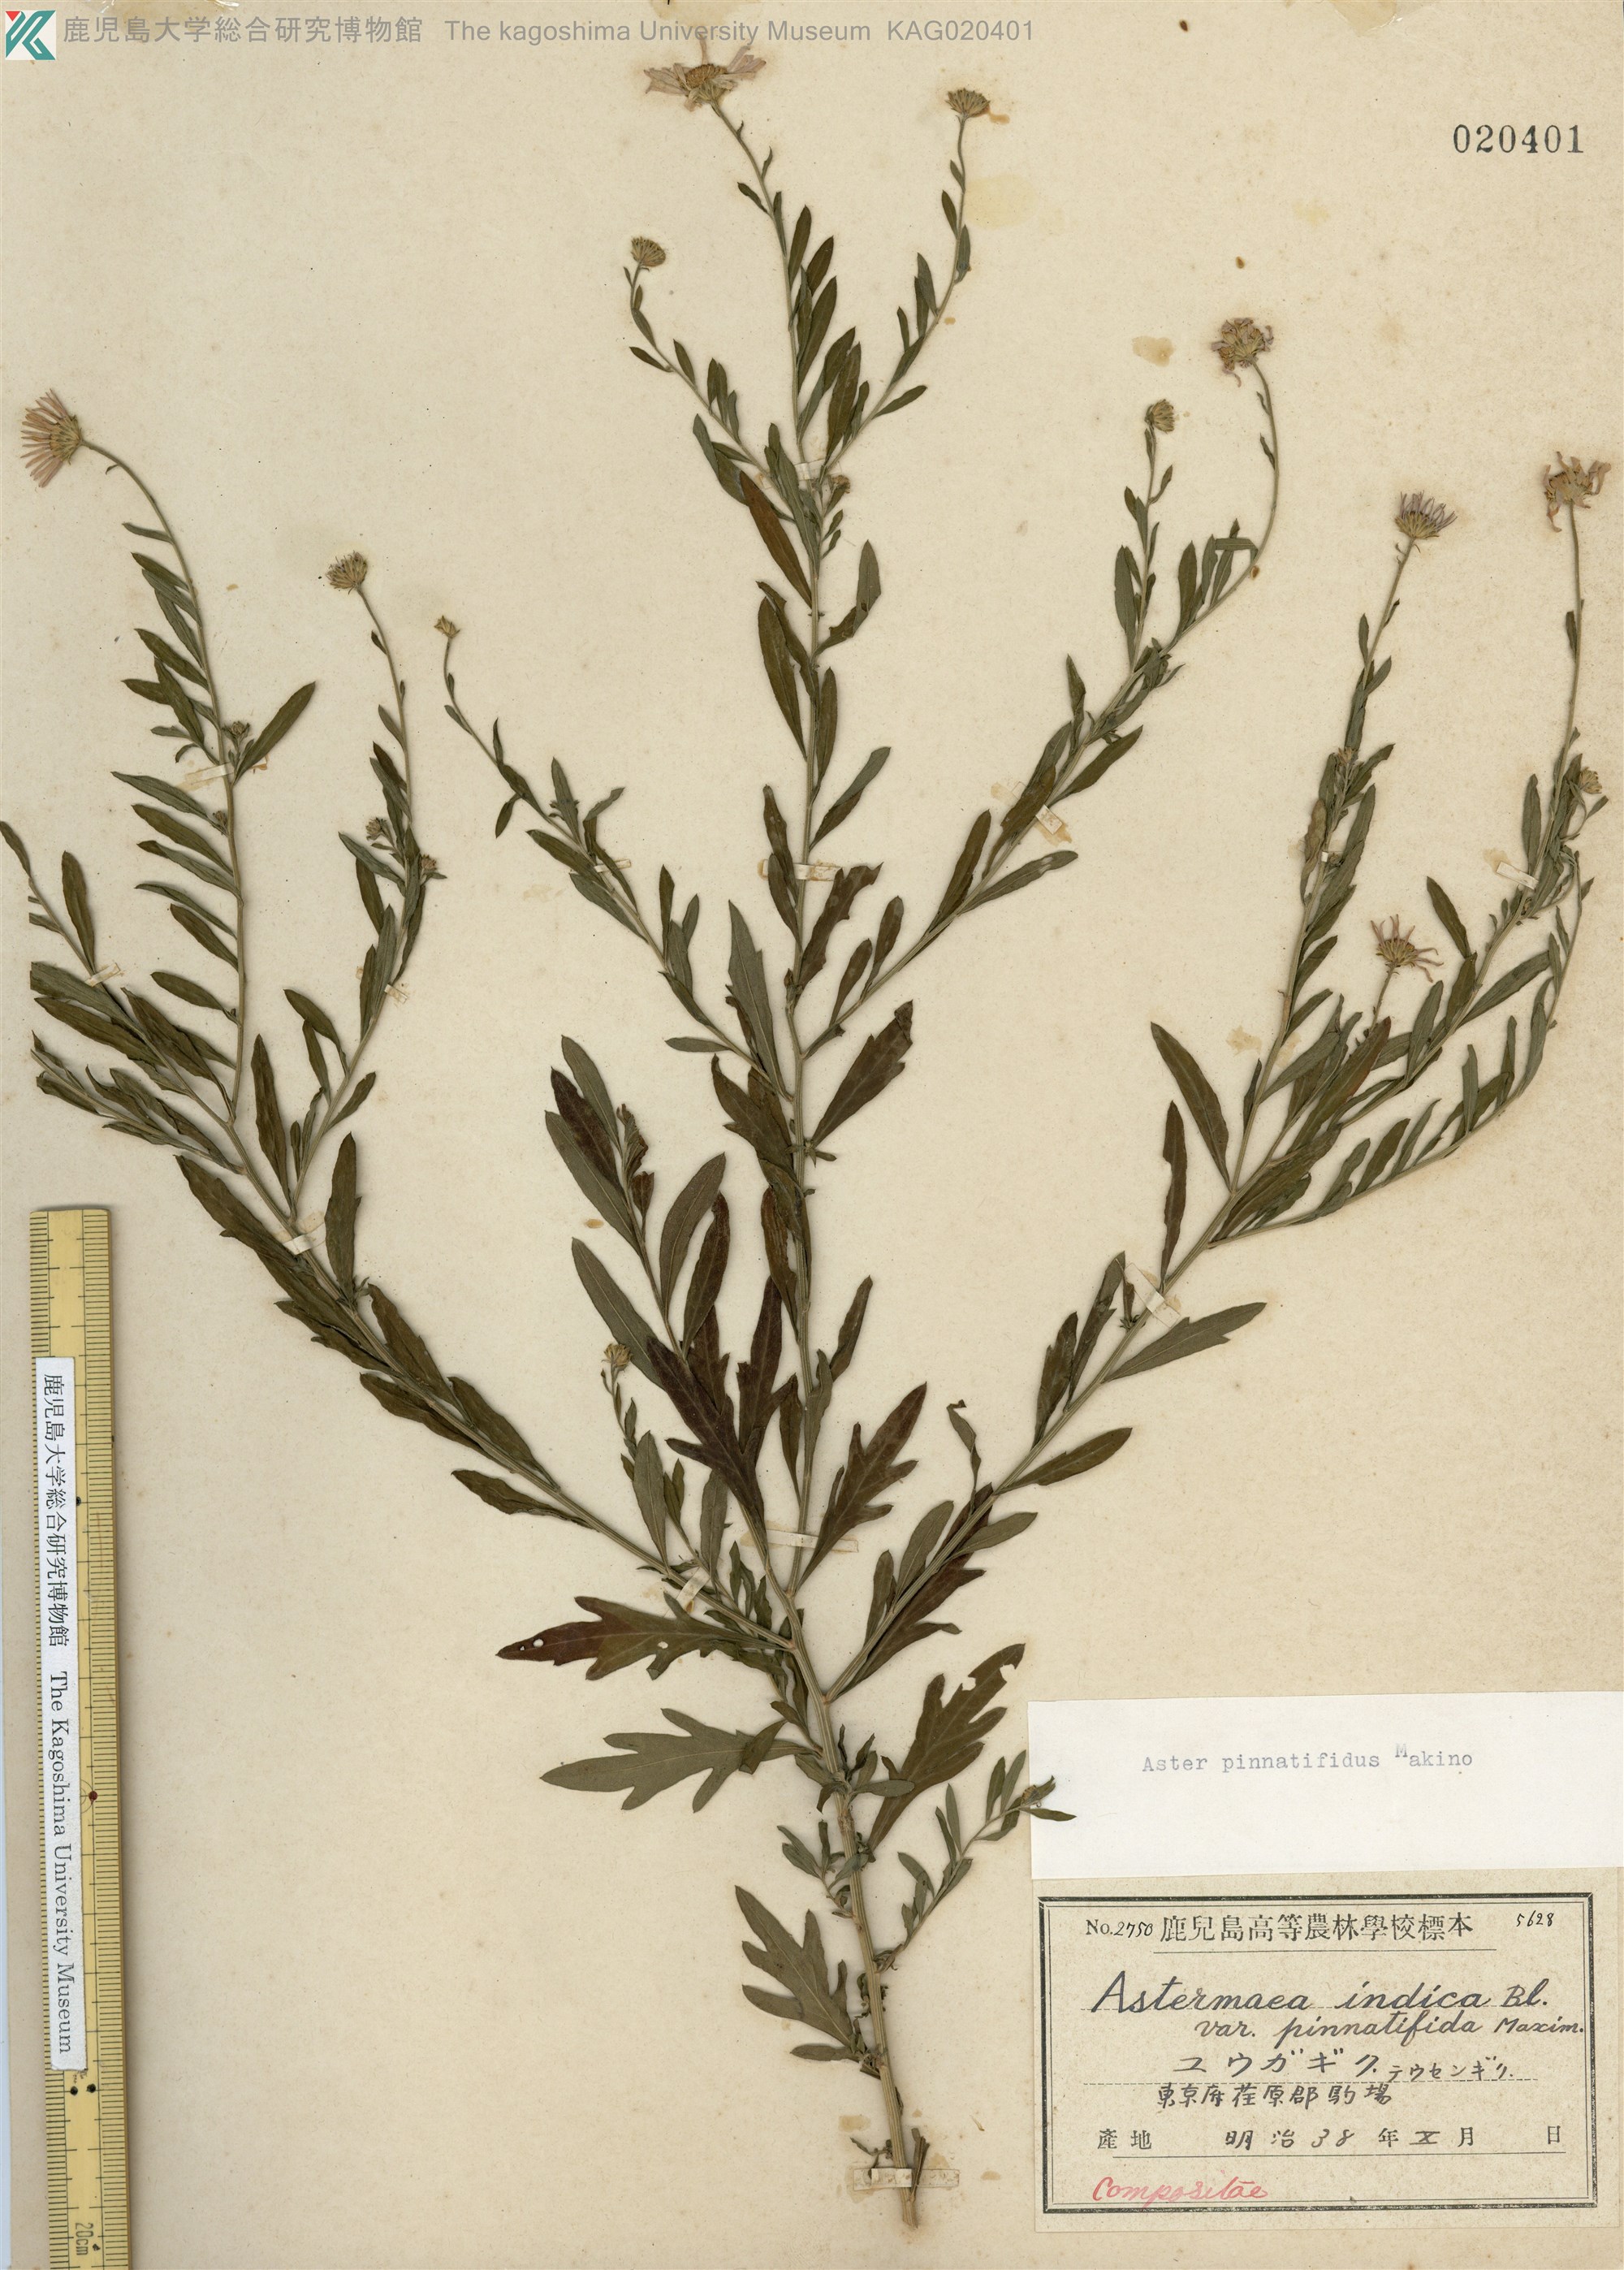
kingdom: Plantae
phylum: Tracheophyta
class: Magnoliopsida
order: Asterales
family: Asteraceae
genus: Kalimeris
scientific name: Kalimeris pinnatifida
